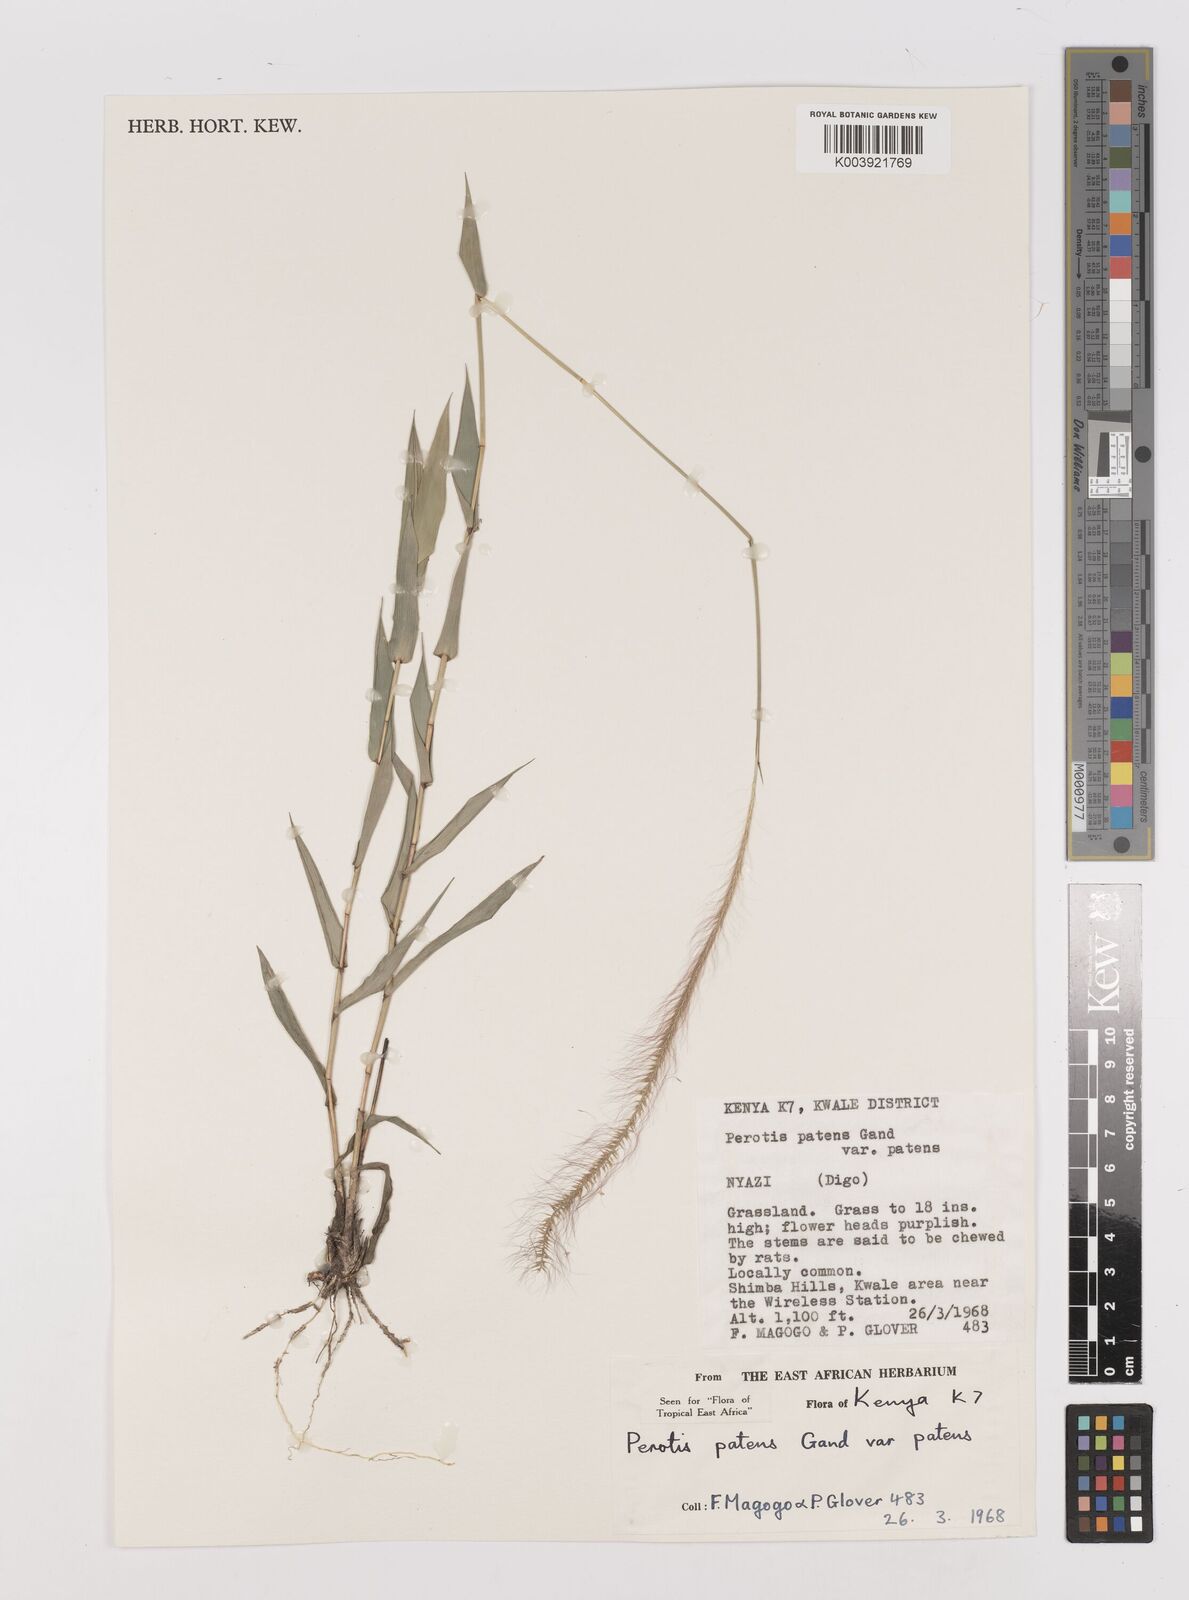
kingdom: Plantae
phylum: Tracheophyta
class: Liliopsida
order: Poales
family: Poaceae
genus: Perotis
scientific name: Perotis patens
